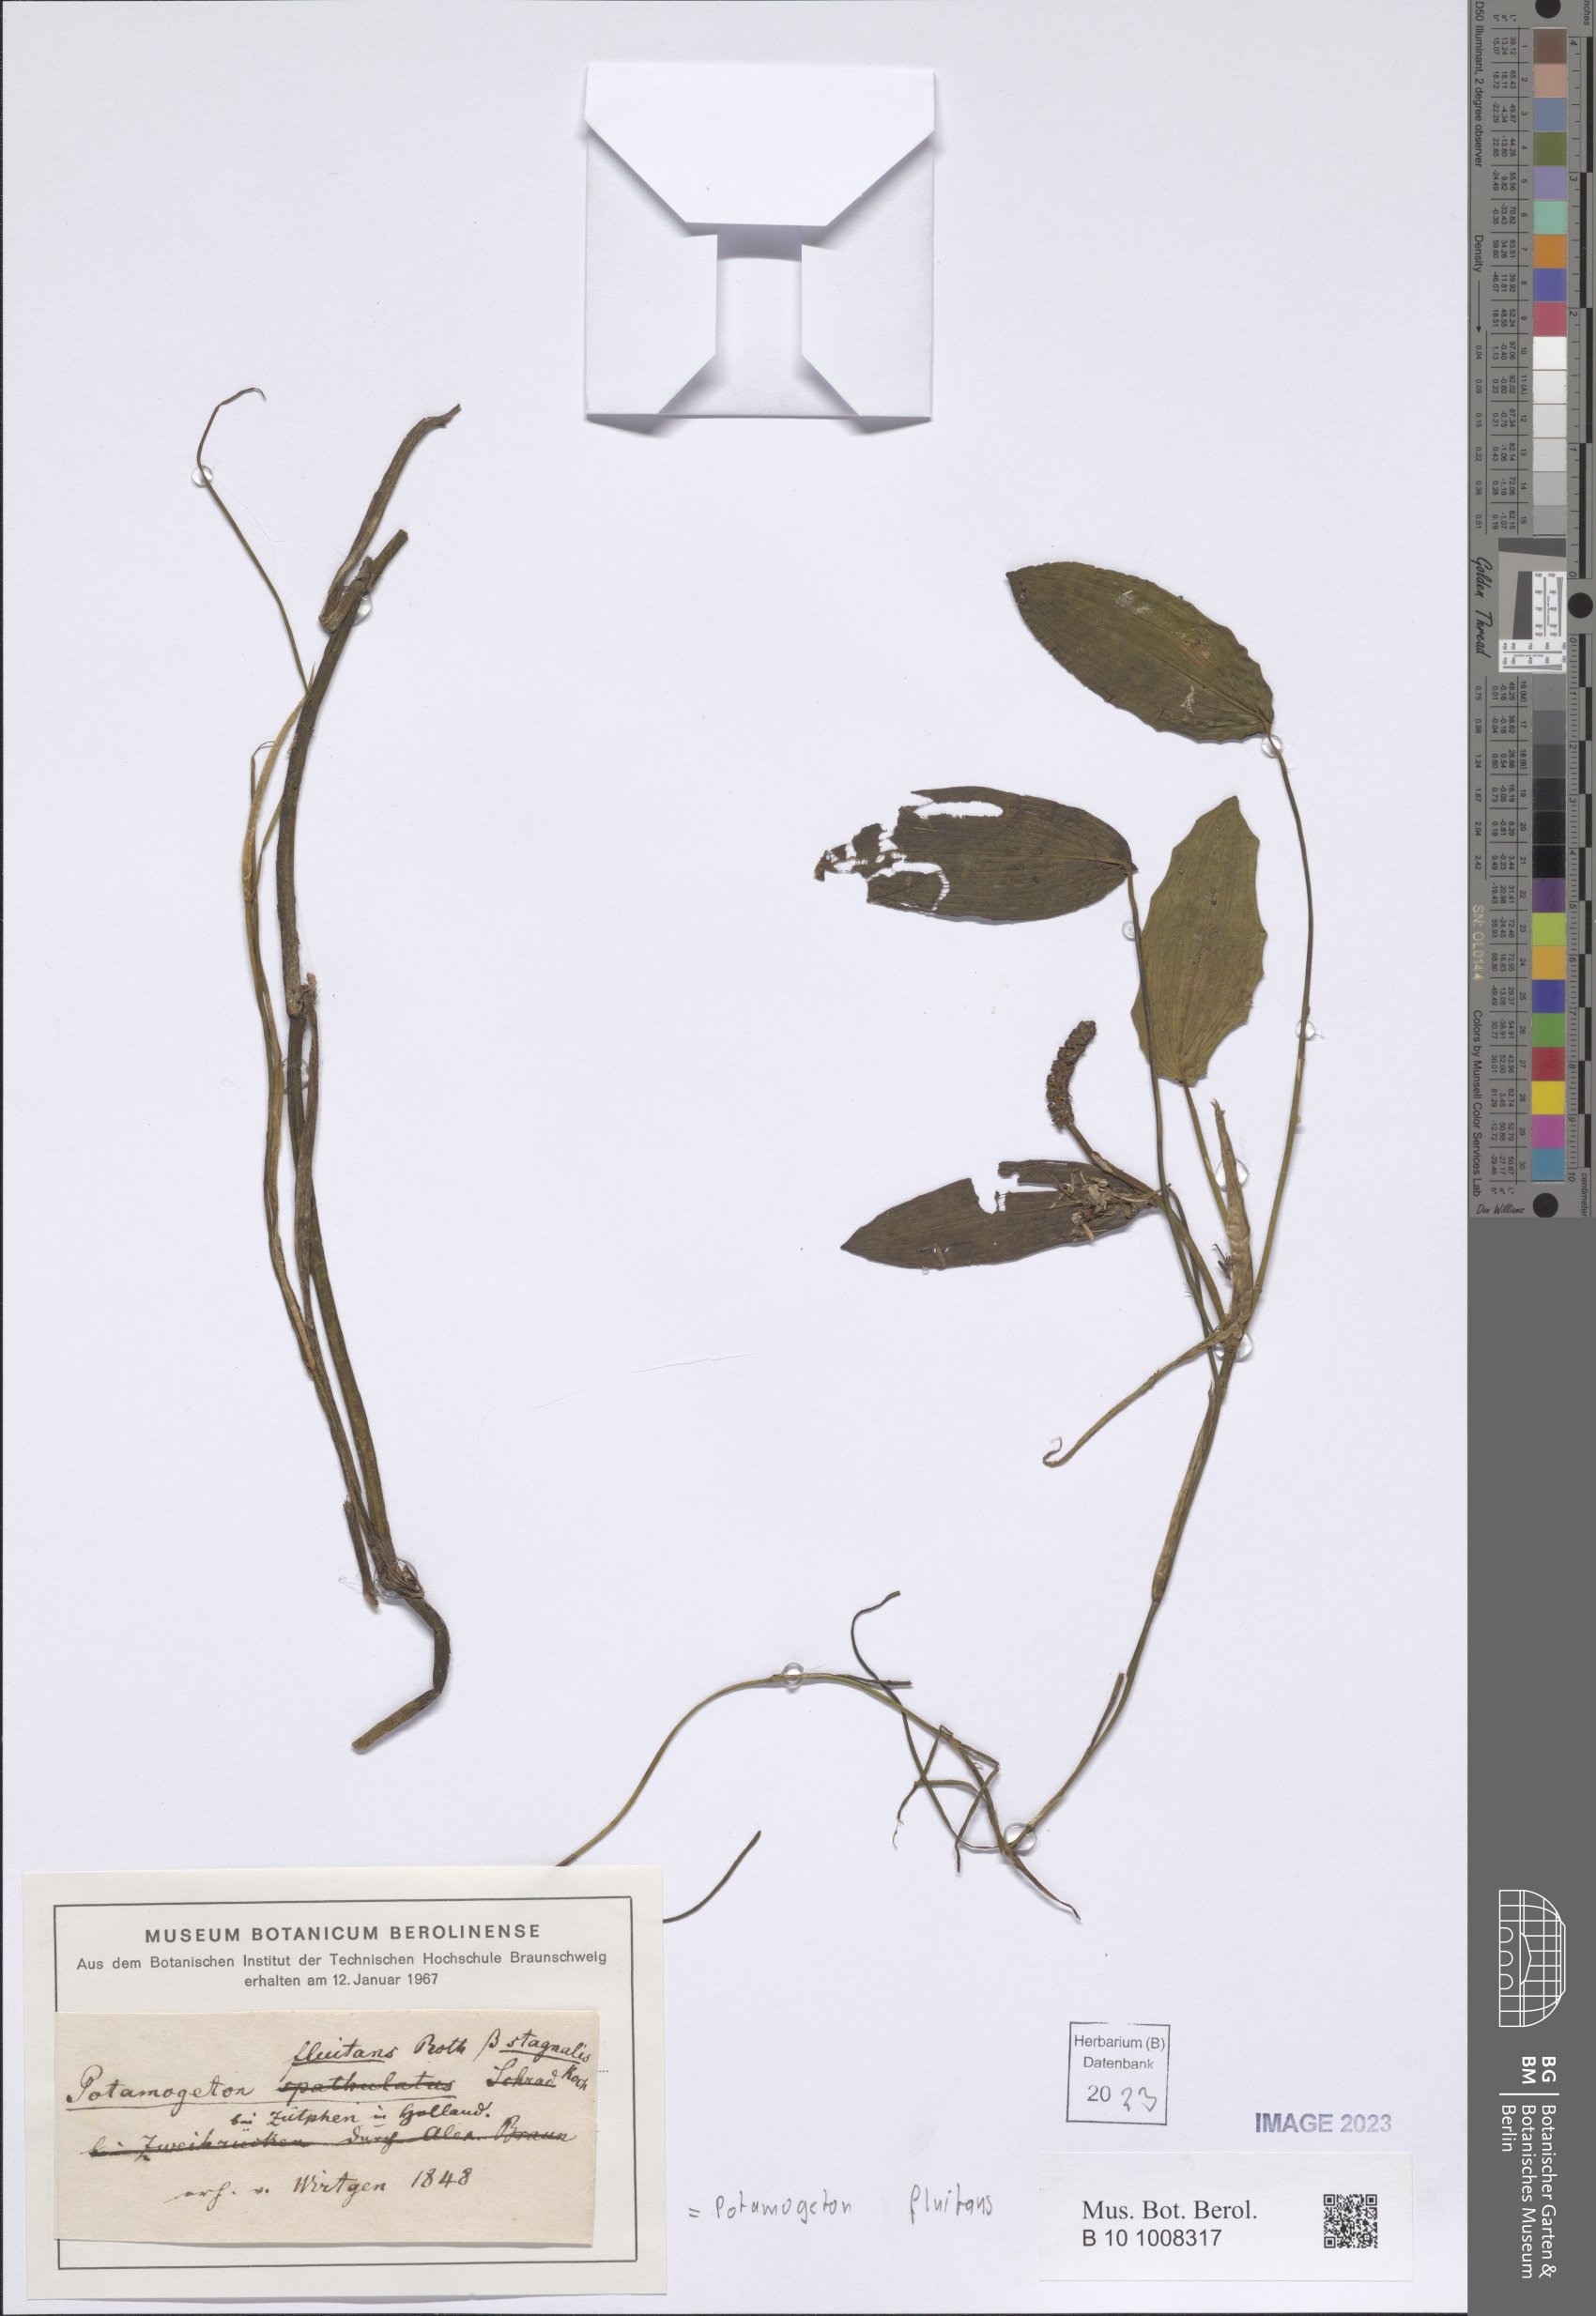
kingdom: Plantae
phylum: Tracheophyta
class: Liliopsida
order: Alismatales
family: Potamogetonaceae
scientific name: Potamogetonaceae
